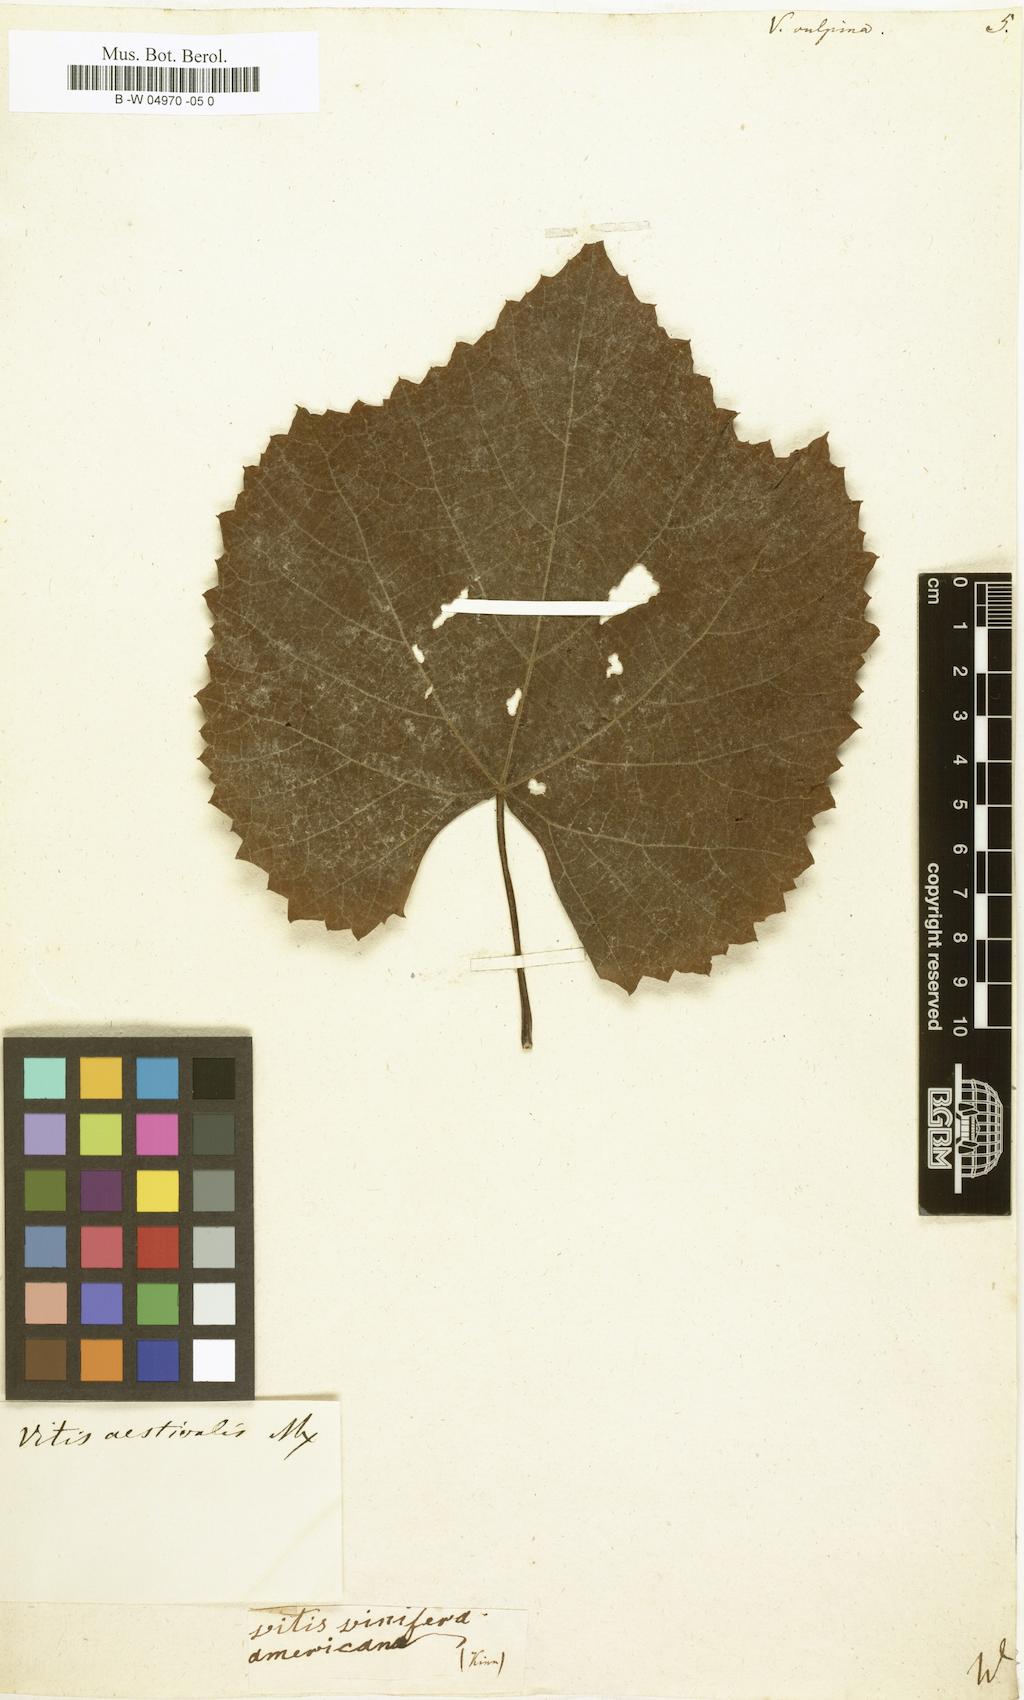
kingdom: Plantae
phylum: Tracheophyta
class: Magnoliopsida
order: Vitales
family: Vitaceae
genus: Vitis
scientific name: Vitis vulpina
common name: Frost grape
